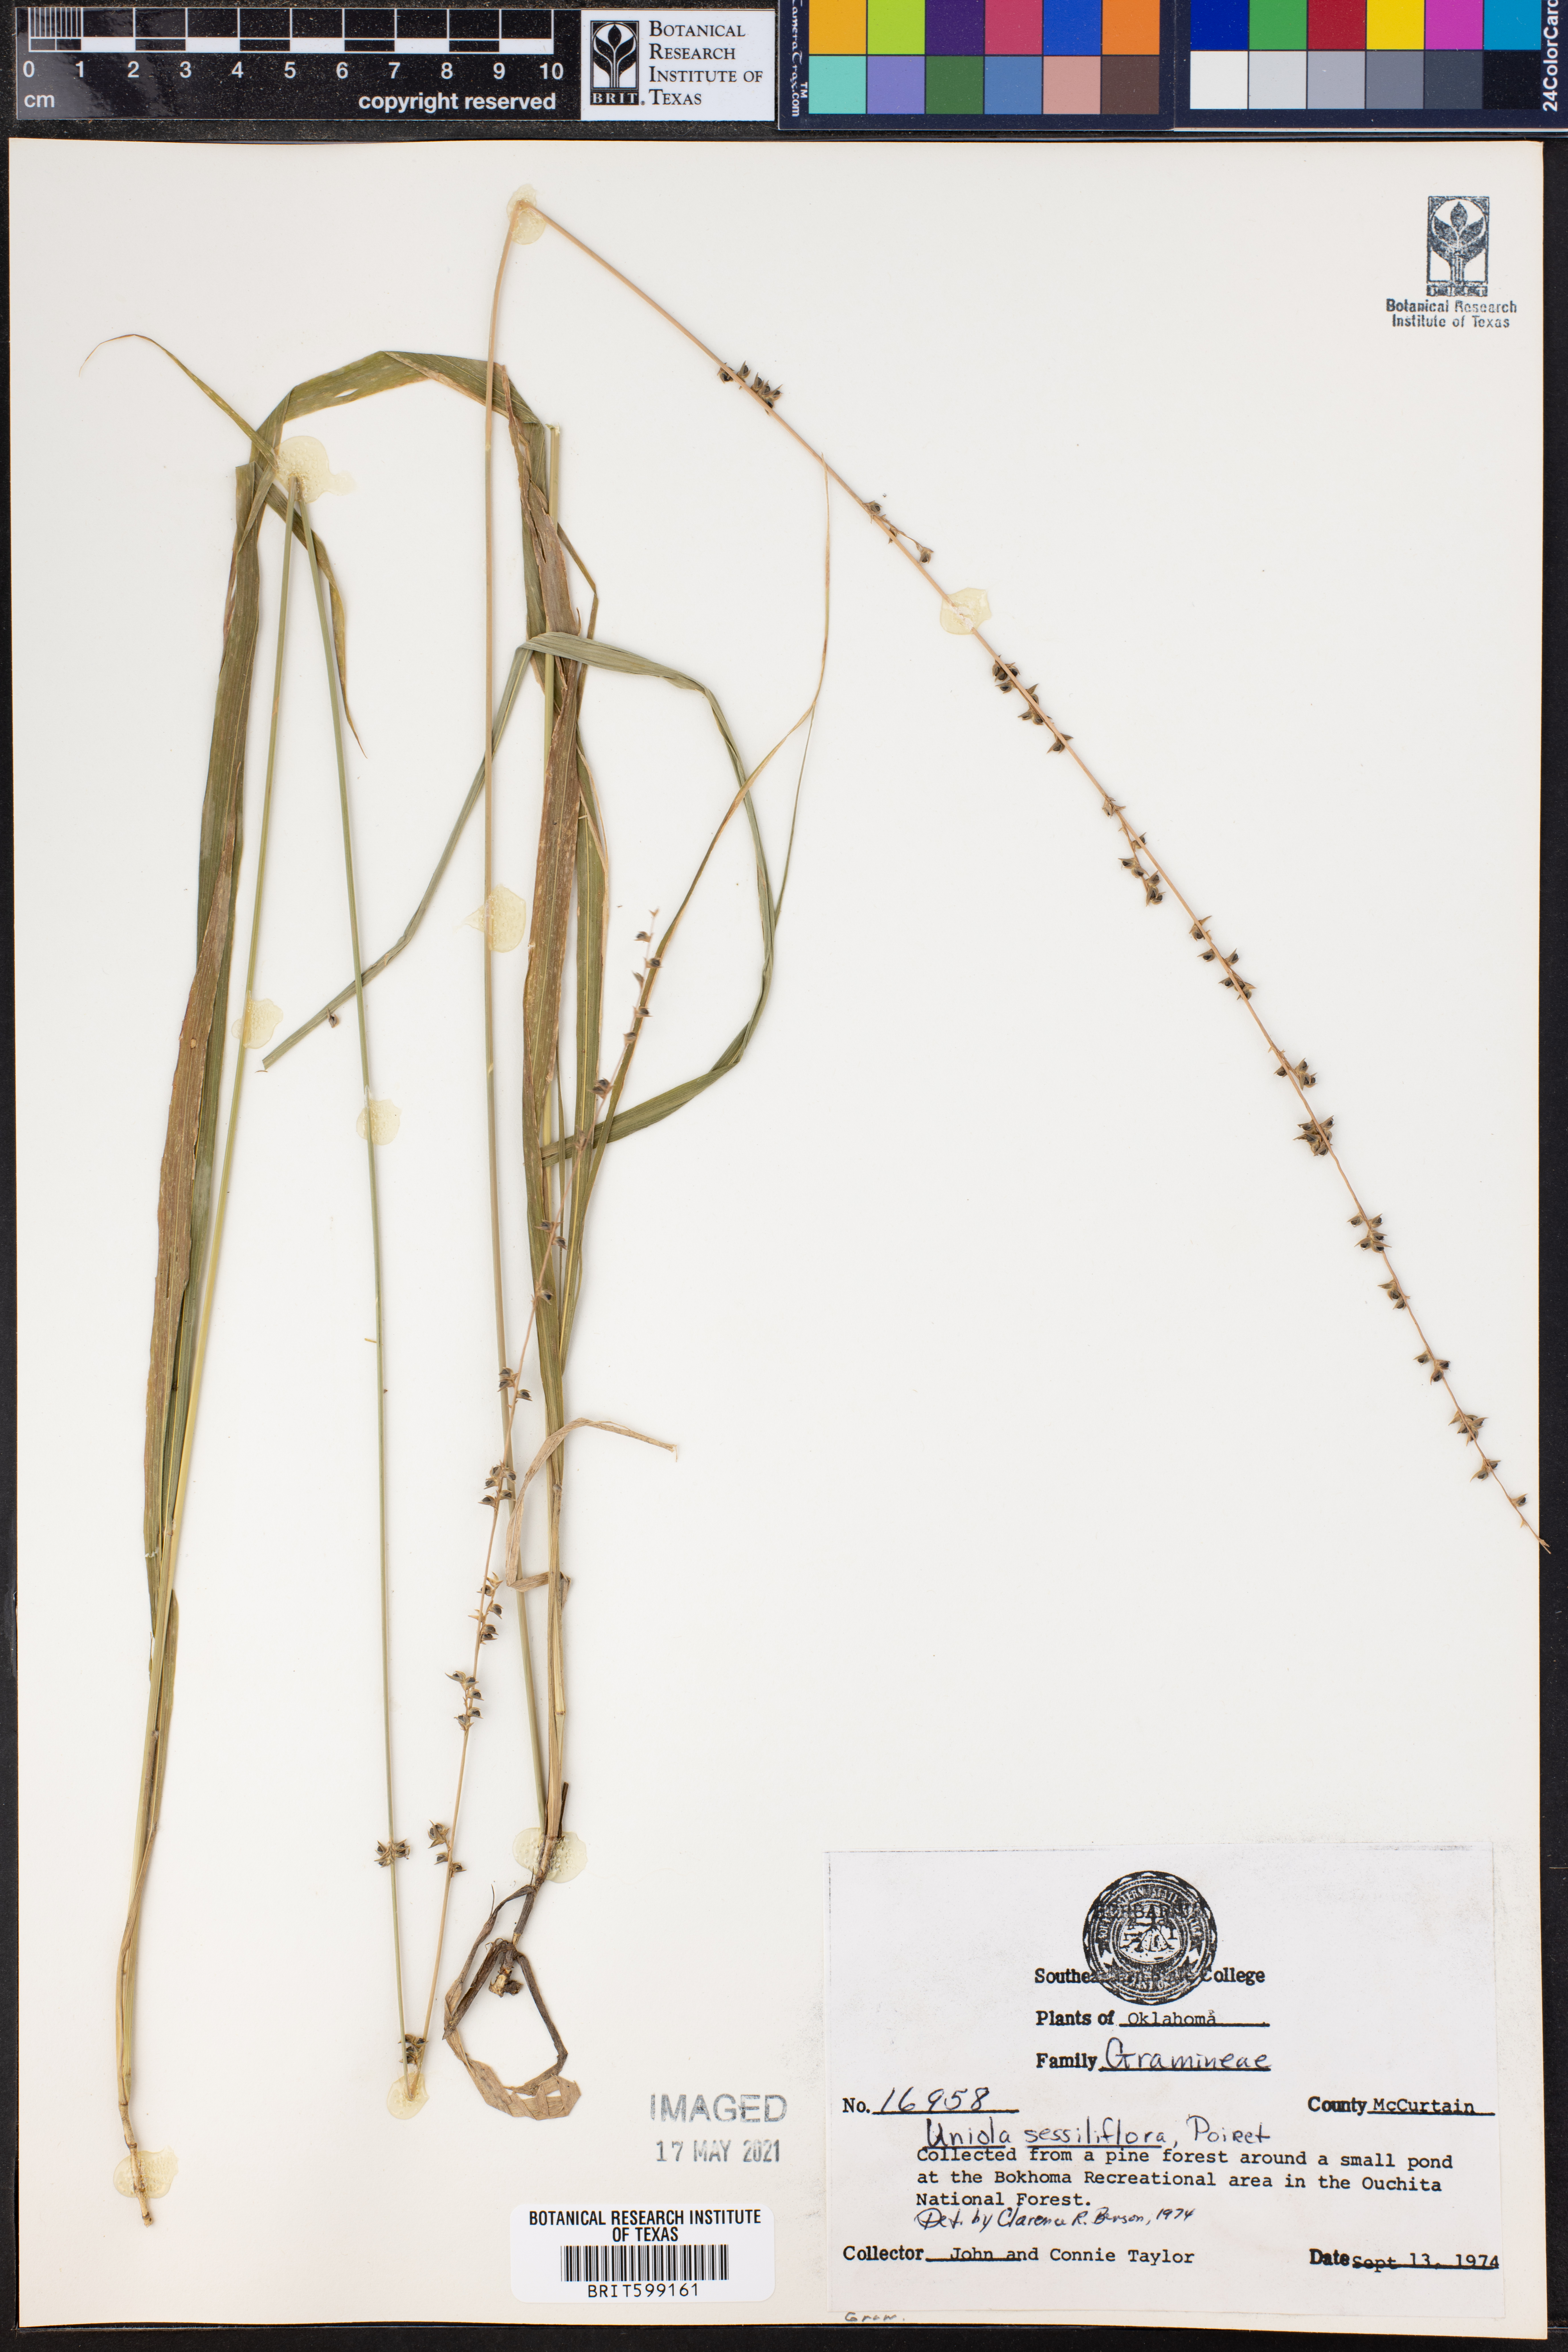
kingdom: Plantae
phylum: Tracheophyta
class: Liliopsida
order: Poales
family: Poaceae
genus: Chasmanthium
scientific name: Chasmanthium laxum
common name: Slender chasmanthium
